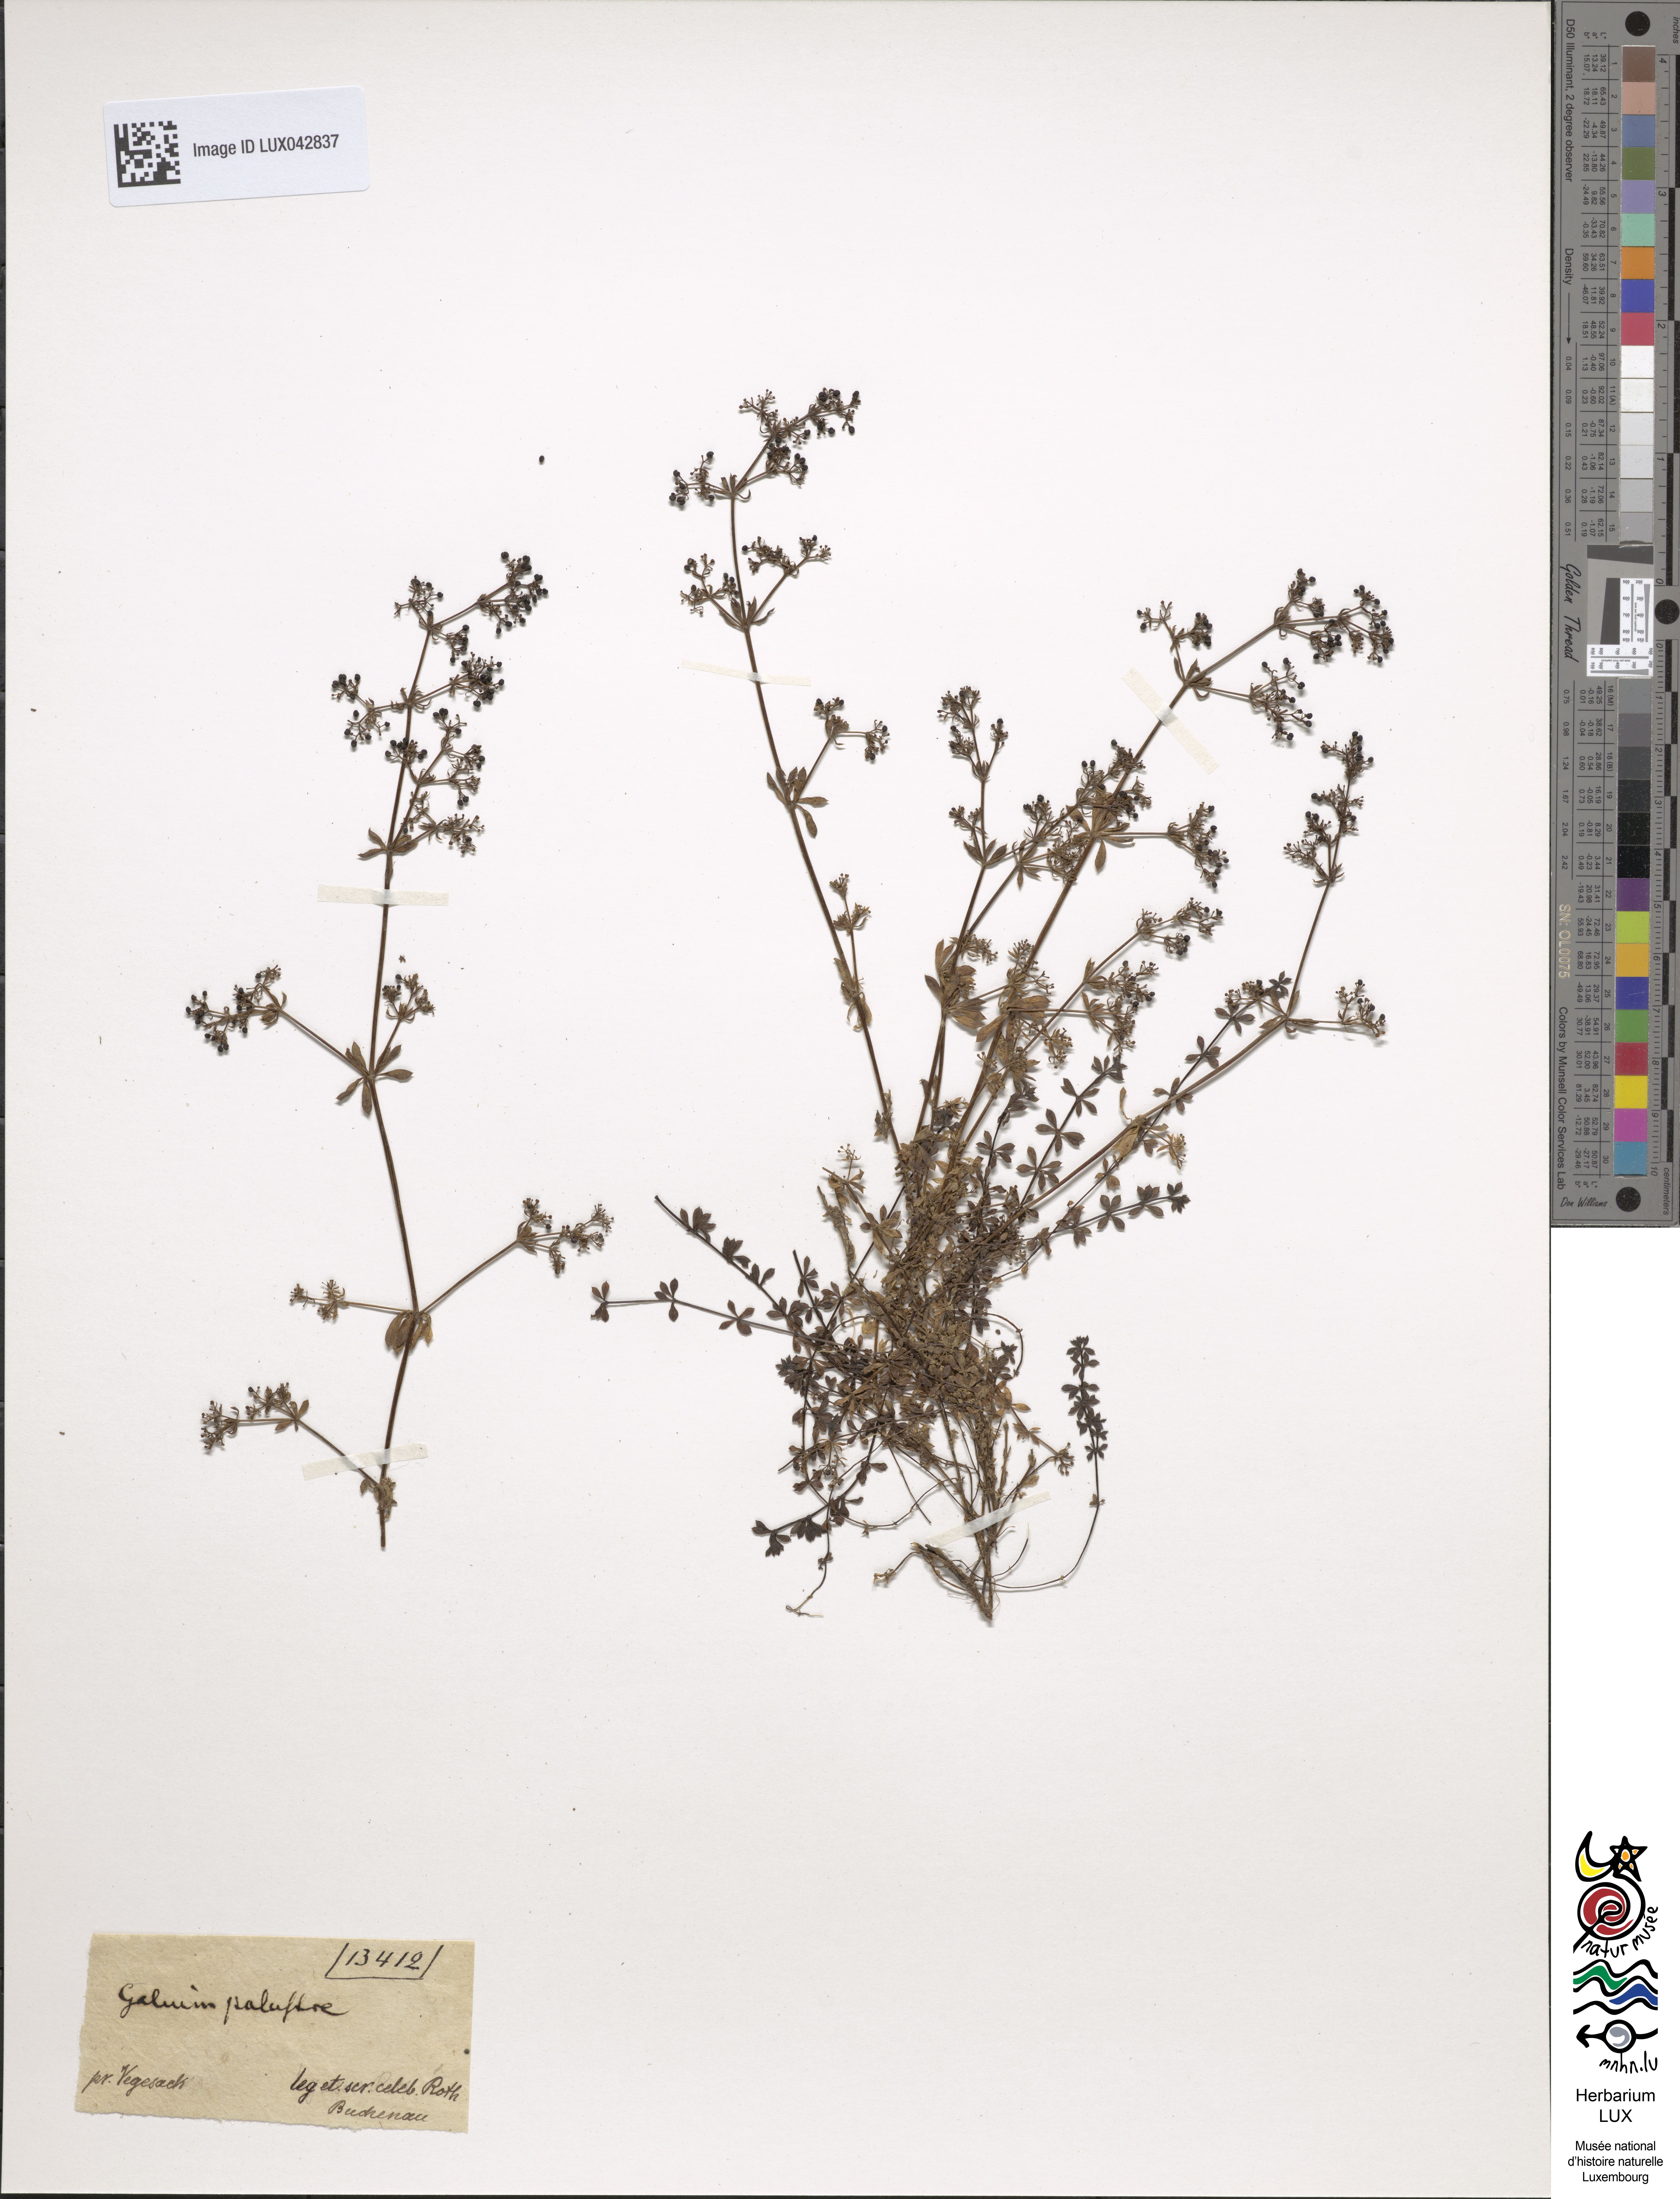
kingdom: Plantae
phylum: Tracheophyta
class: Magnoliopsida
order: Gentianales
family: Rubiaceae
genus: Galium
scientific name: Galium palustre
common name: Common marsh-bedstraw
